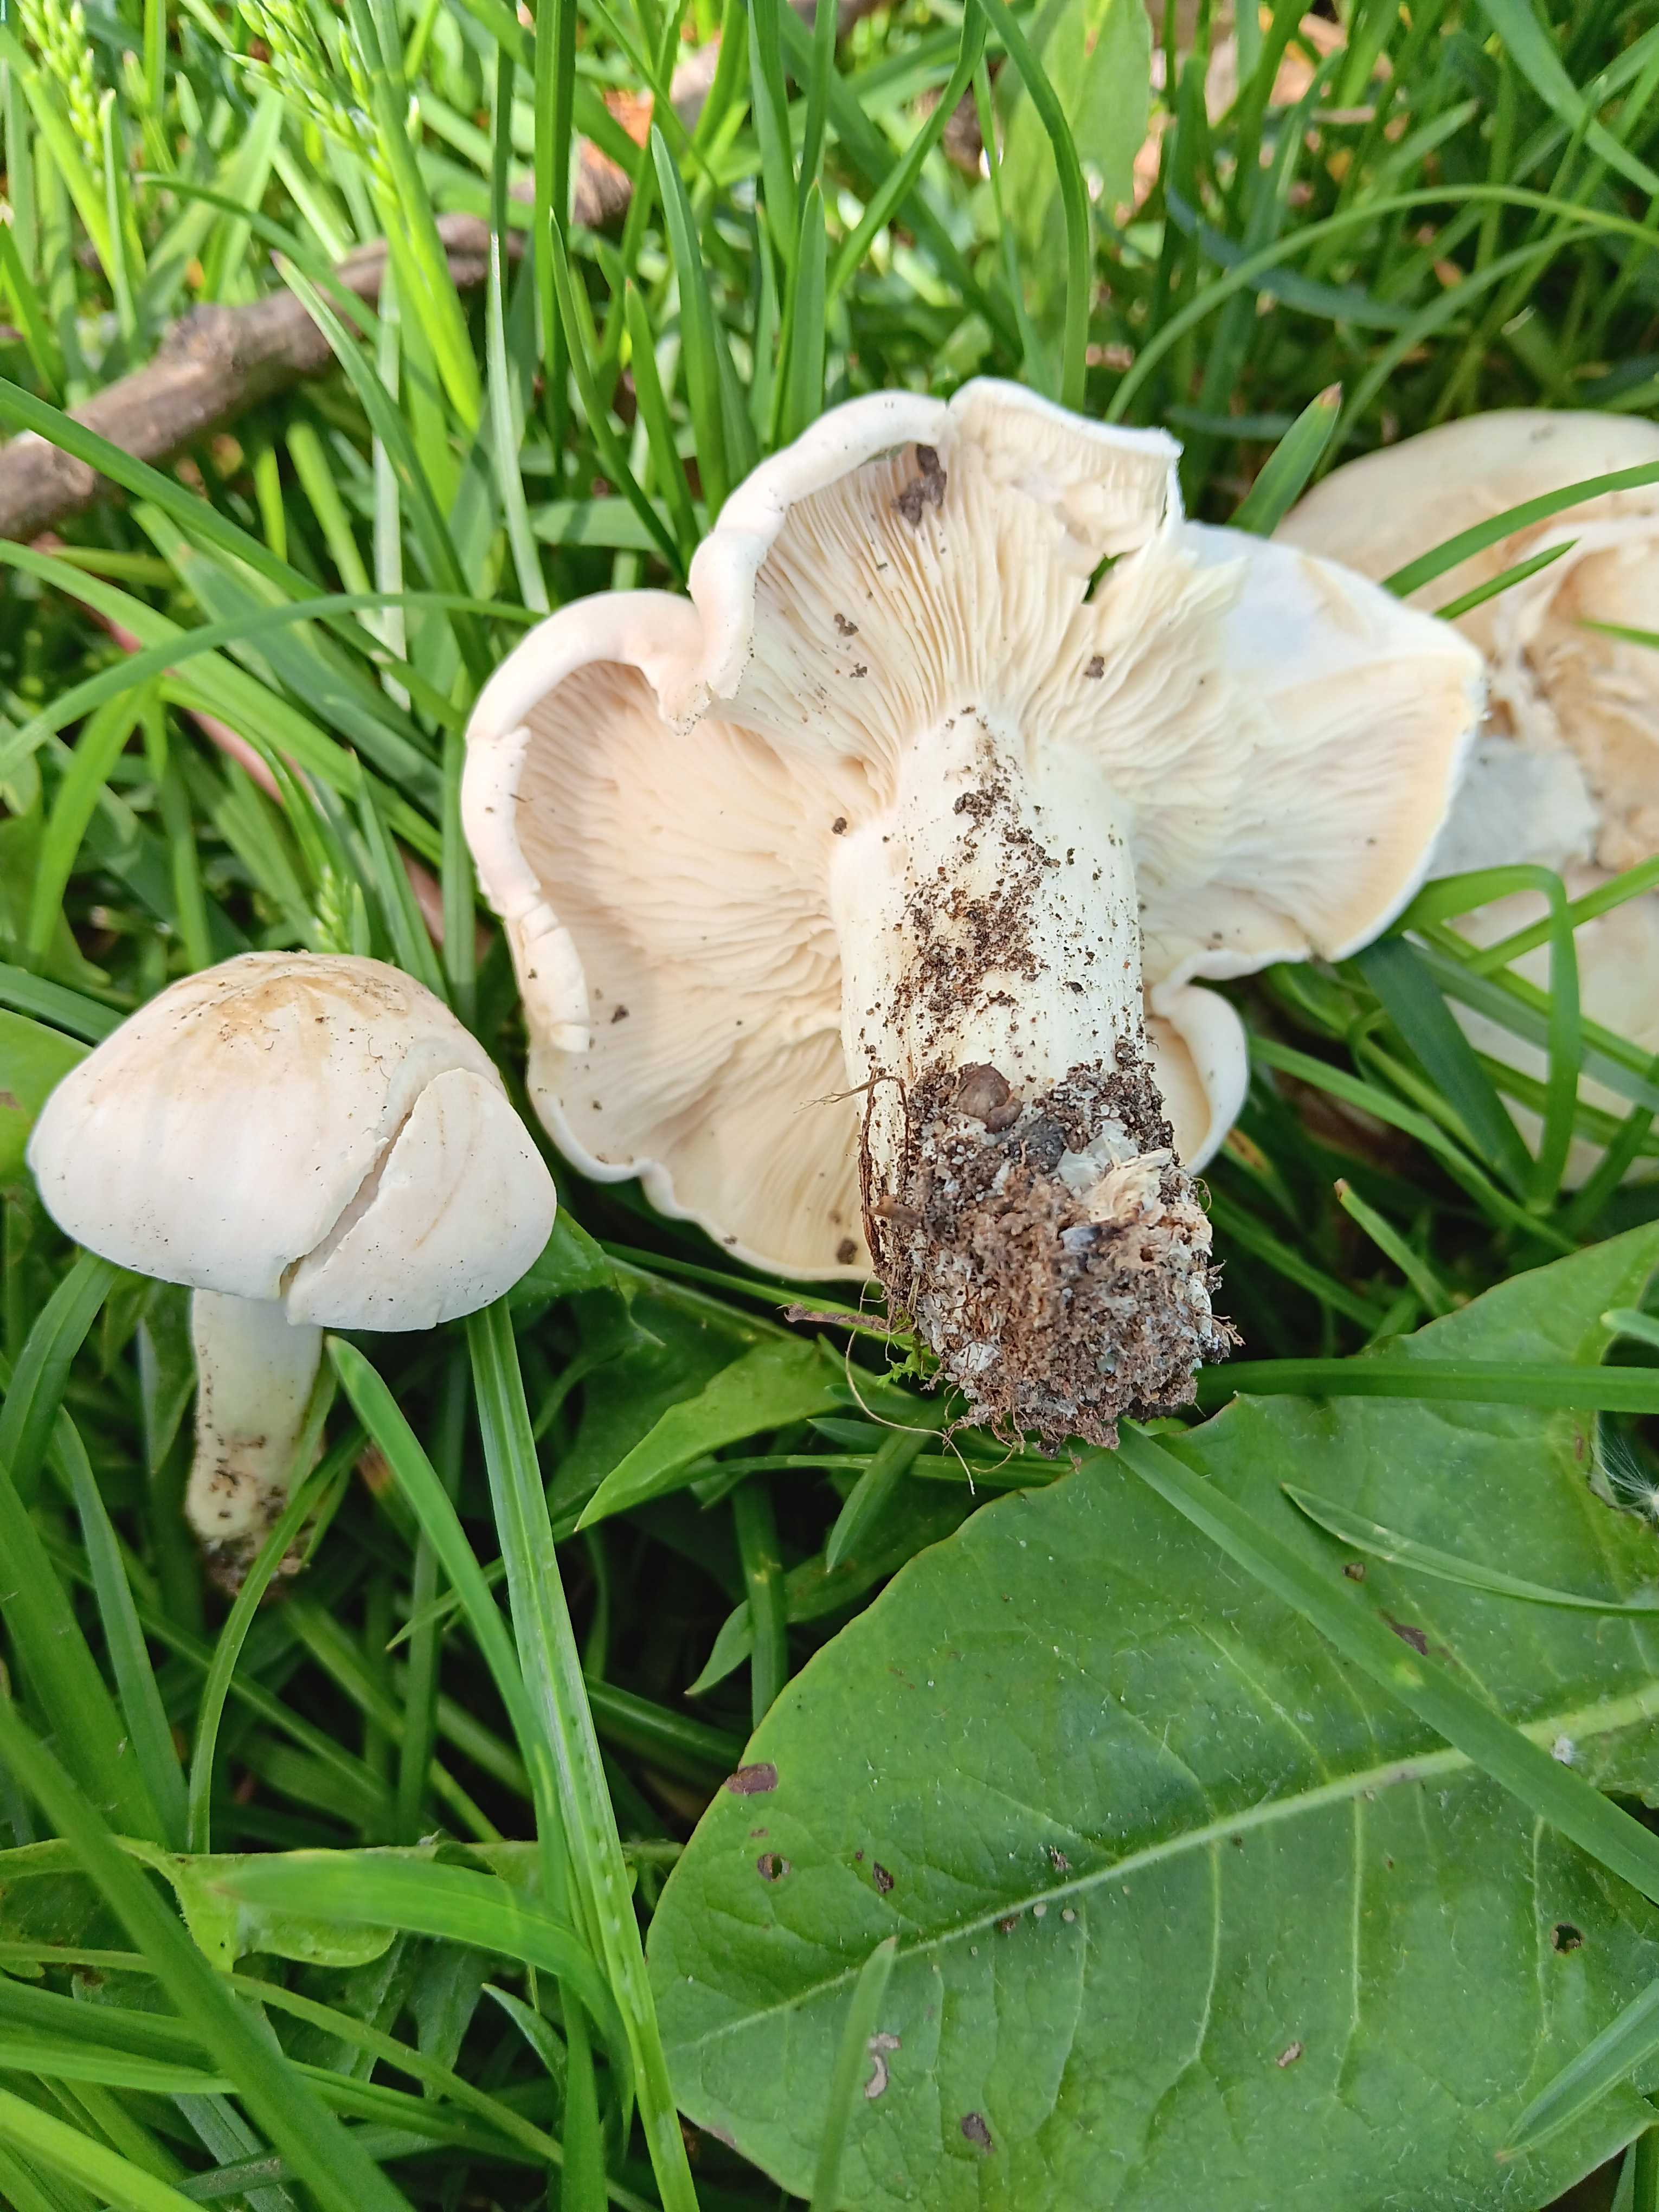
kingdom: Fungi
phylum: Basidiomycota
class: Agaricomycetes
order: Agaricales
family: Lyophyllaceae
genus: Calocybe
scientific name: Calocybe gambosa
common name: vårmusseron
